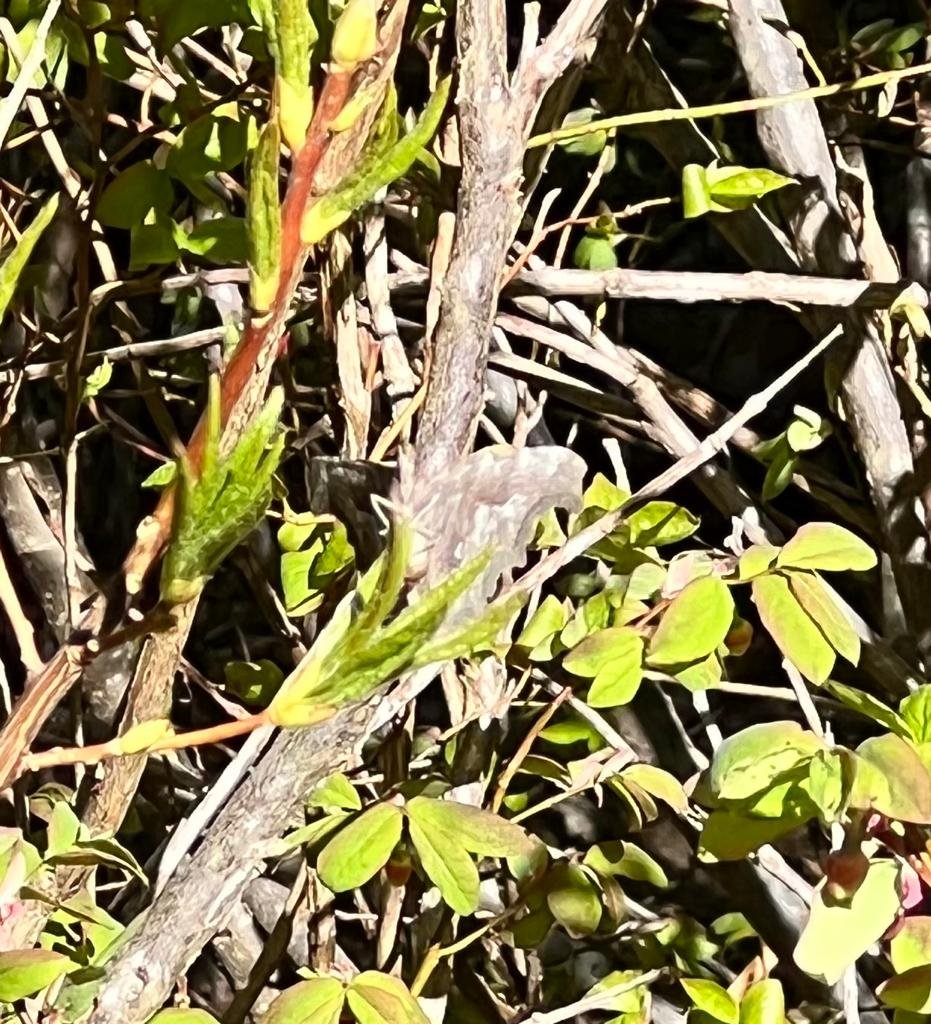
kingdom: Animalia
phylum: Arthropoda
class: Insecta
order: Lepidoptera
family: Nymphalidae
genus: Polygonia
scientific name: Polygonia
